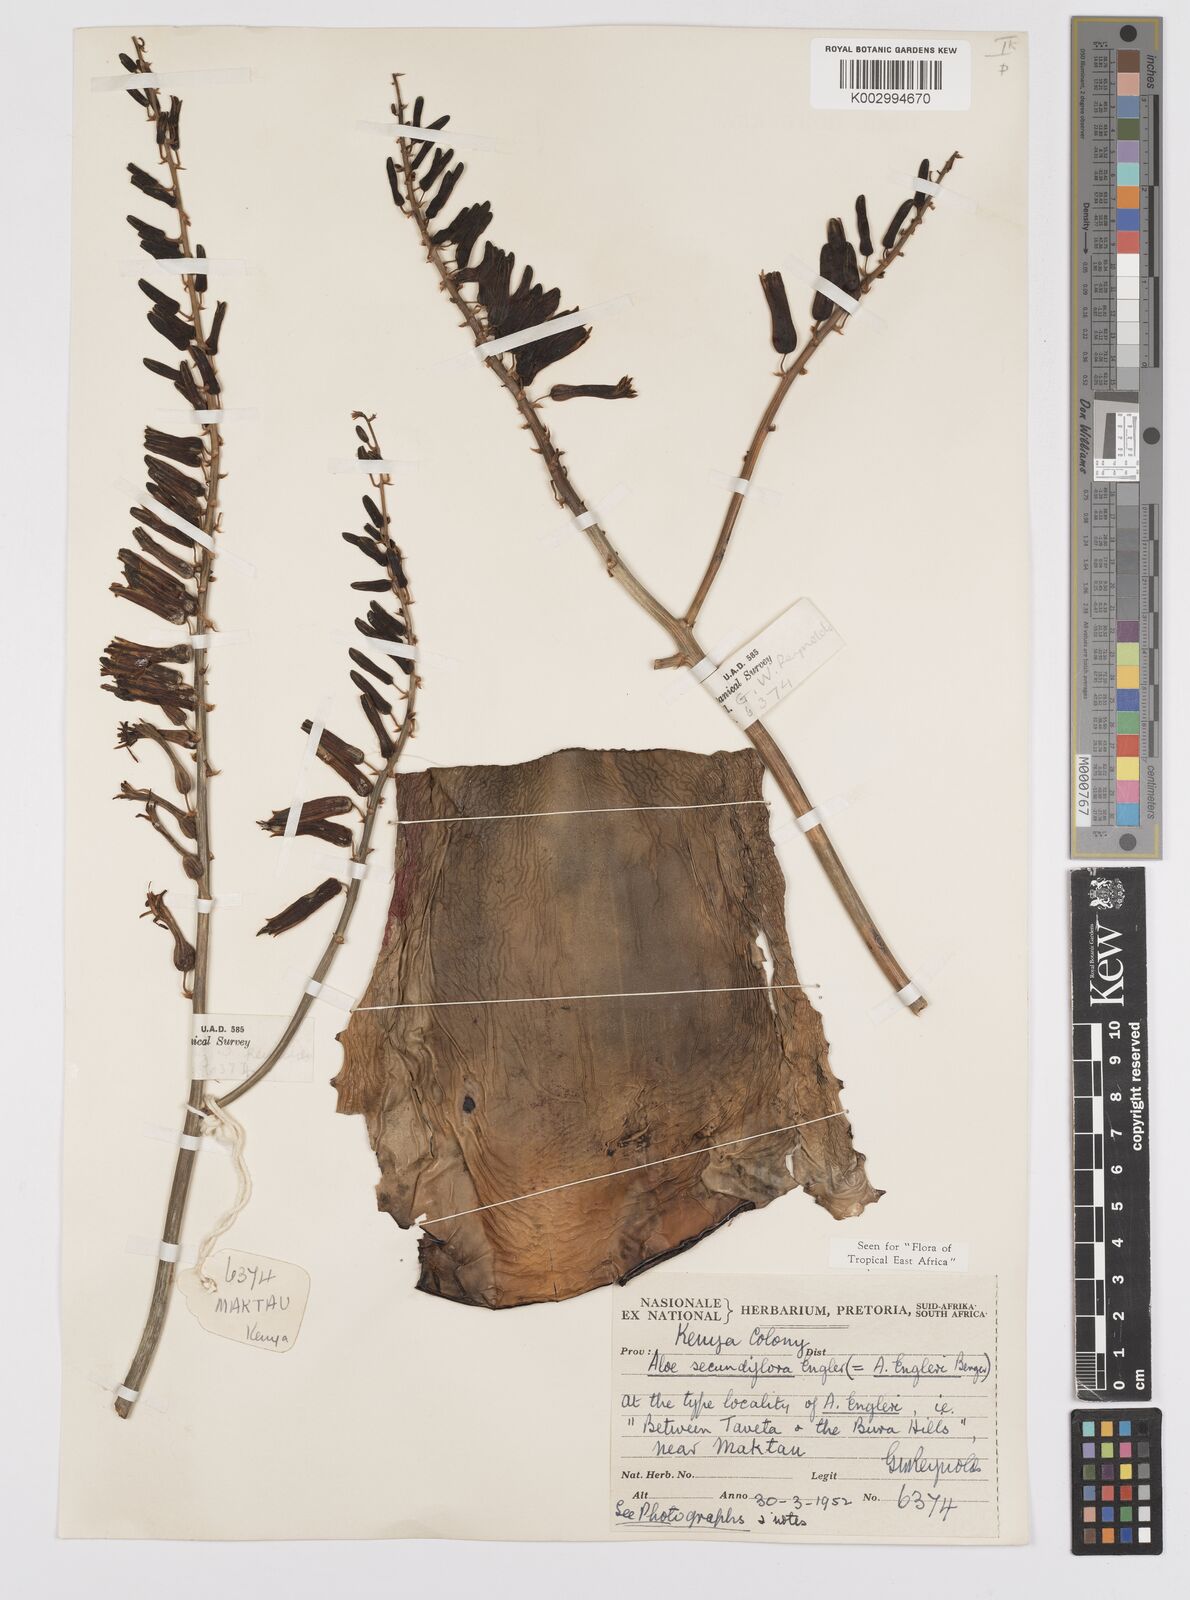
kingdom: Plantae
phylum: Tracheophyta
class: Liliopsida
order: Asparagales
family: Asphodelaceae
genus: Aloe
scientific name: Aloe secundiflora
